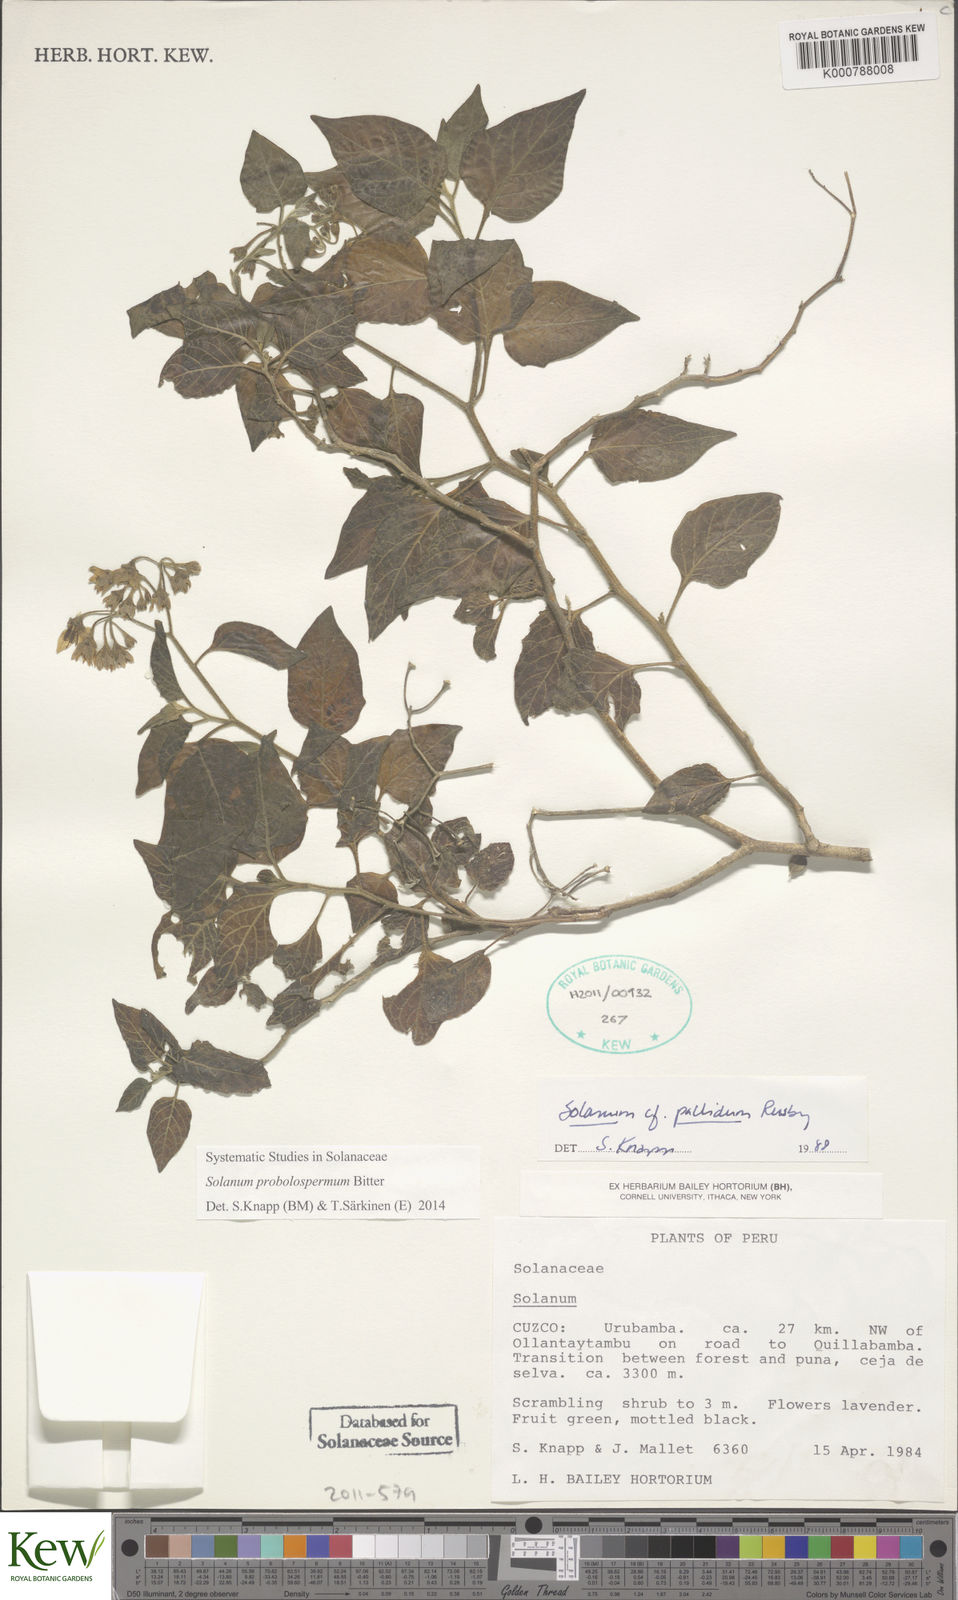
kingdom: Plantae
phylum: Tracheophyta
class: Magnoliopsida
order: Solanales
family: Solanaceae
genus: Solanum
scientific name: Solanum probolospermum
